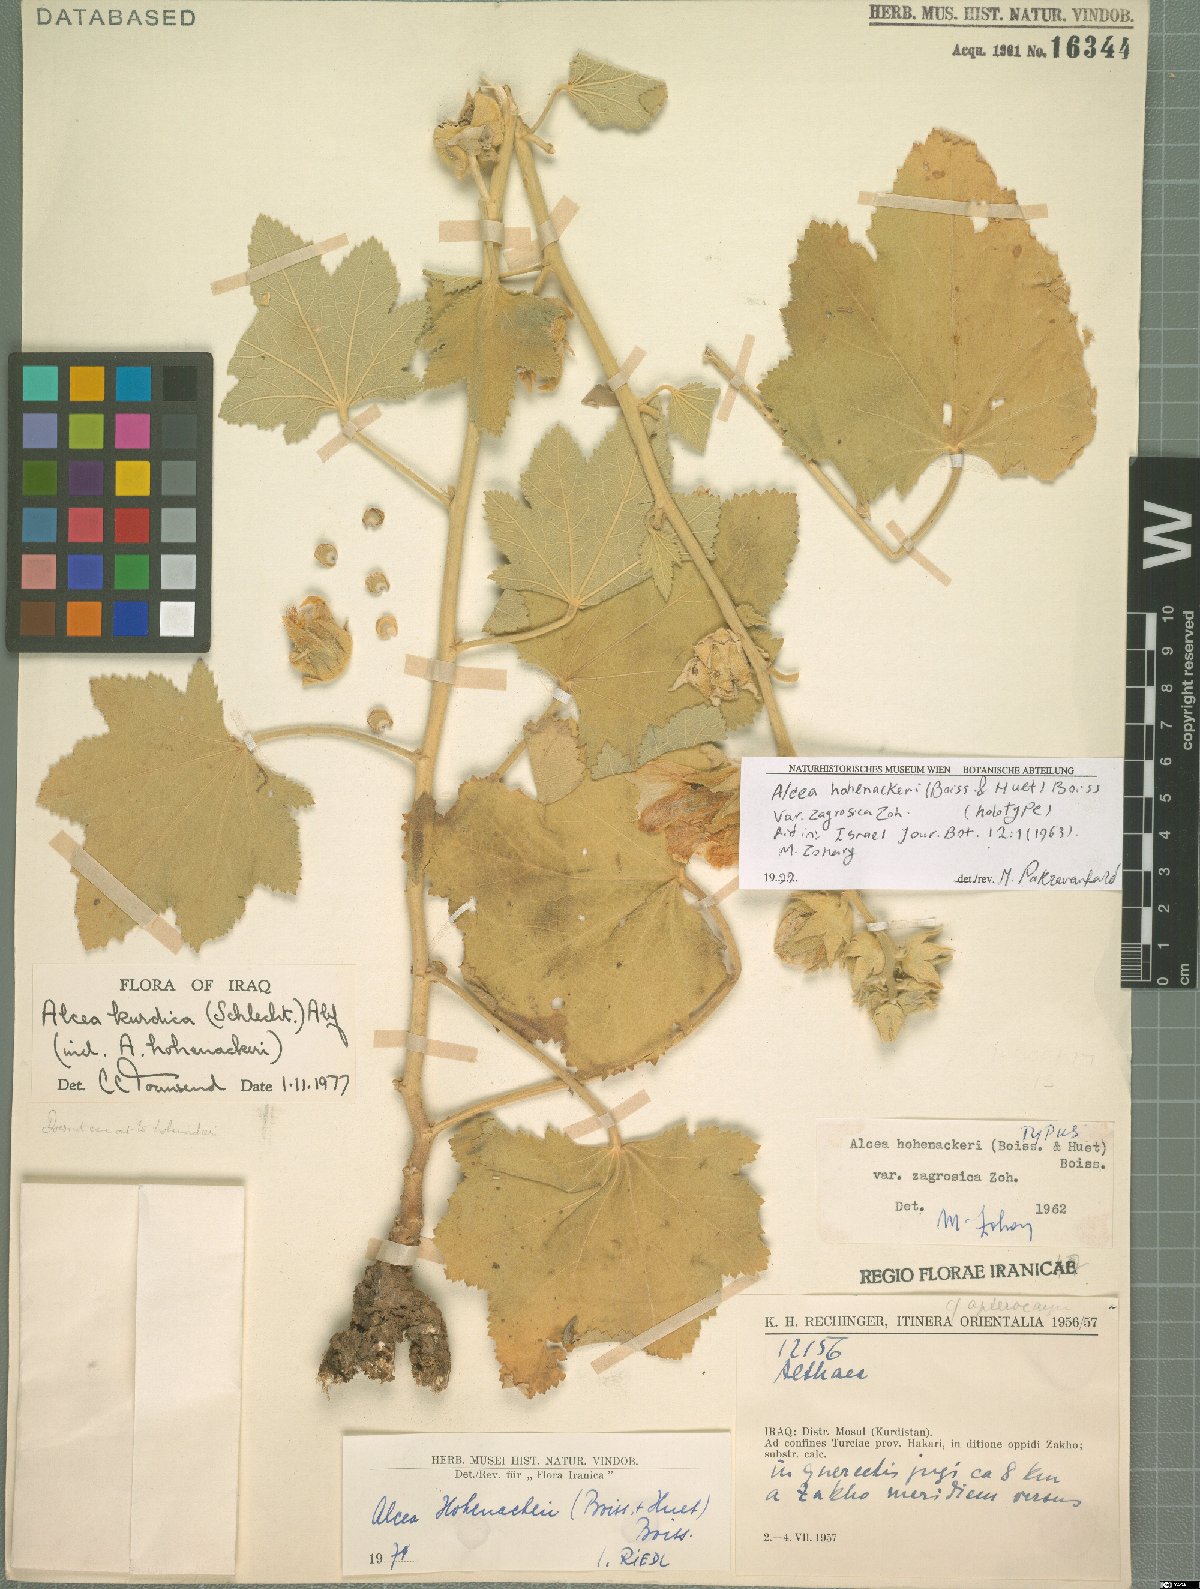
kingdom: Plantae
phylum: Tracheophyta
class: Magnoliopsida
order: Malvales
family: Malvaceae
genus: Alcea
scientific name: Alcea kurdica
